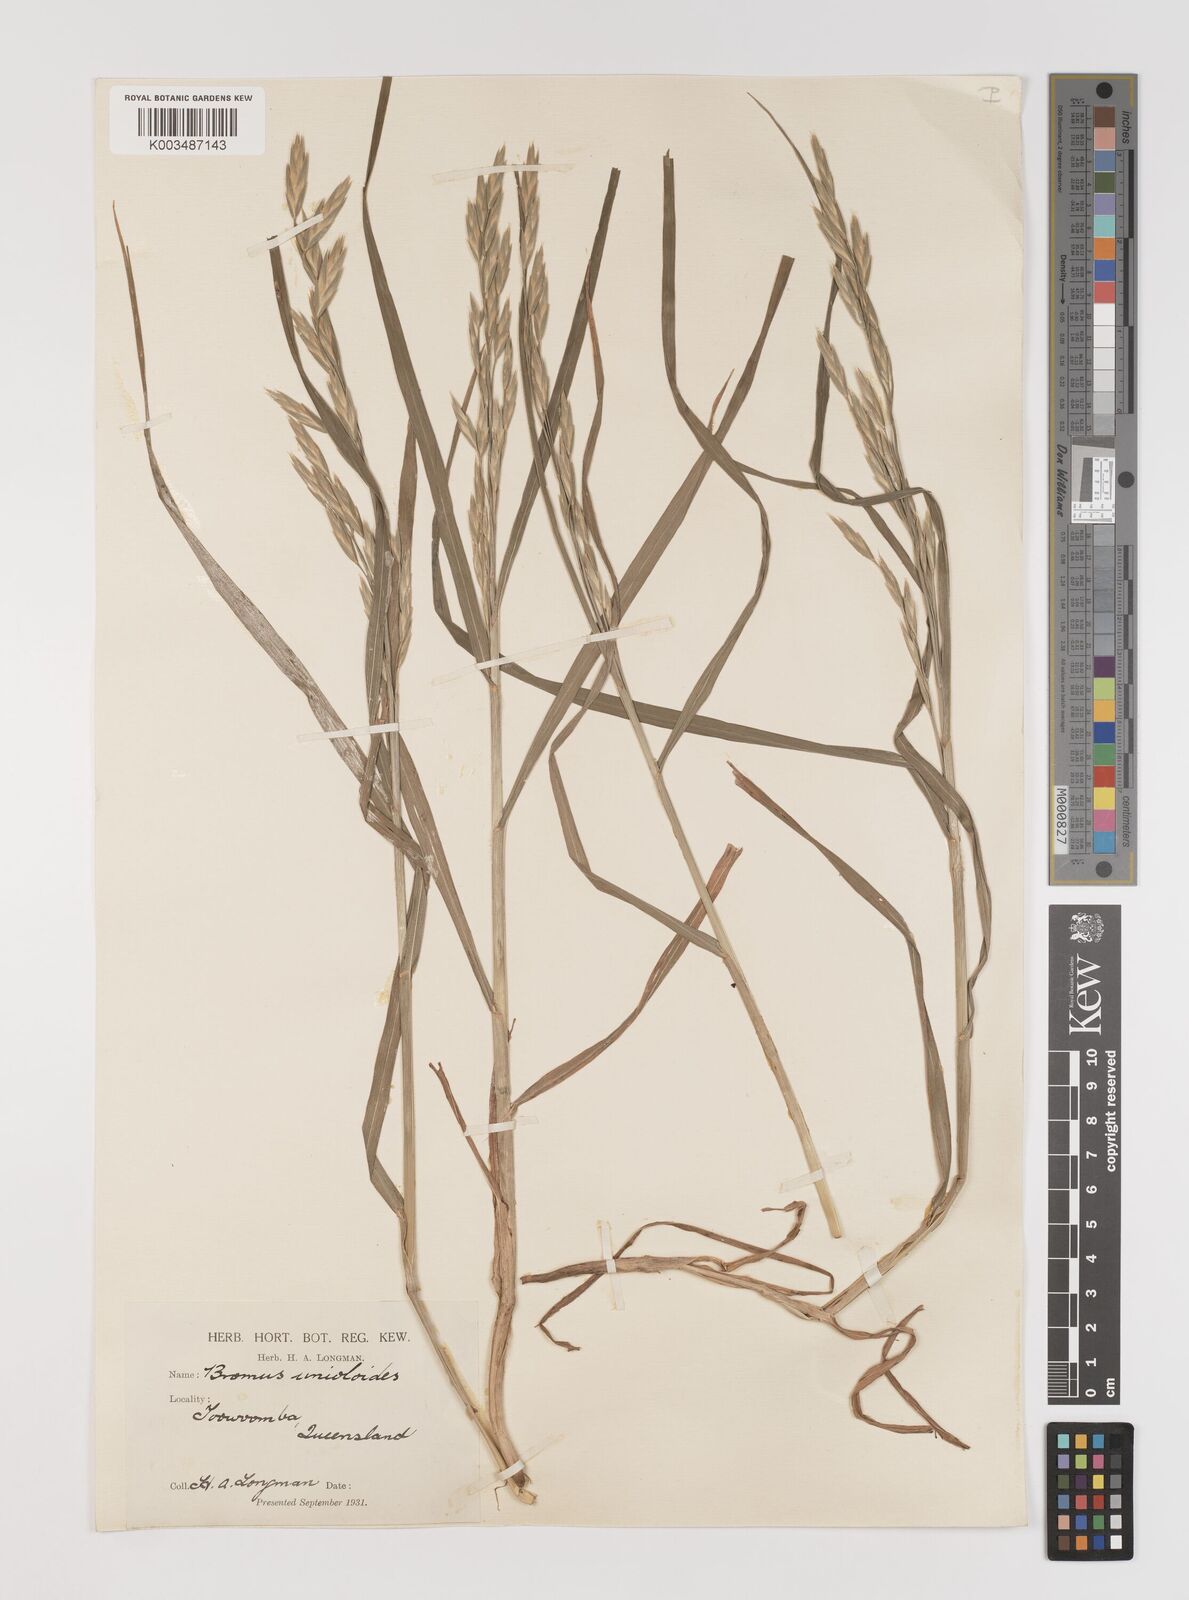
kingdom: Plantae
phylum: Tracheophyta
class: Liliopsida
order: Poales
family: Poaceae
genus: Bromus
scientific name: Bromus catharticus
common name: Rescuegrass
